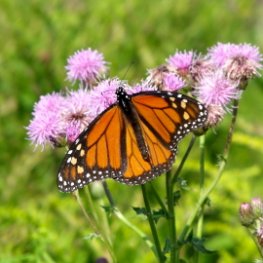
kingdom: Animalia
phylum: Arthropoda
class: Insecta
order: Lepidoptera
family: Nymphalidae
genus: Danaus
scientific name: Danaus plexippus
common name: Monarch
